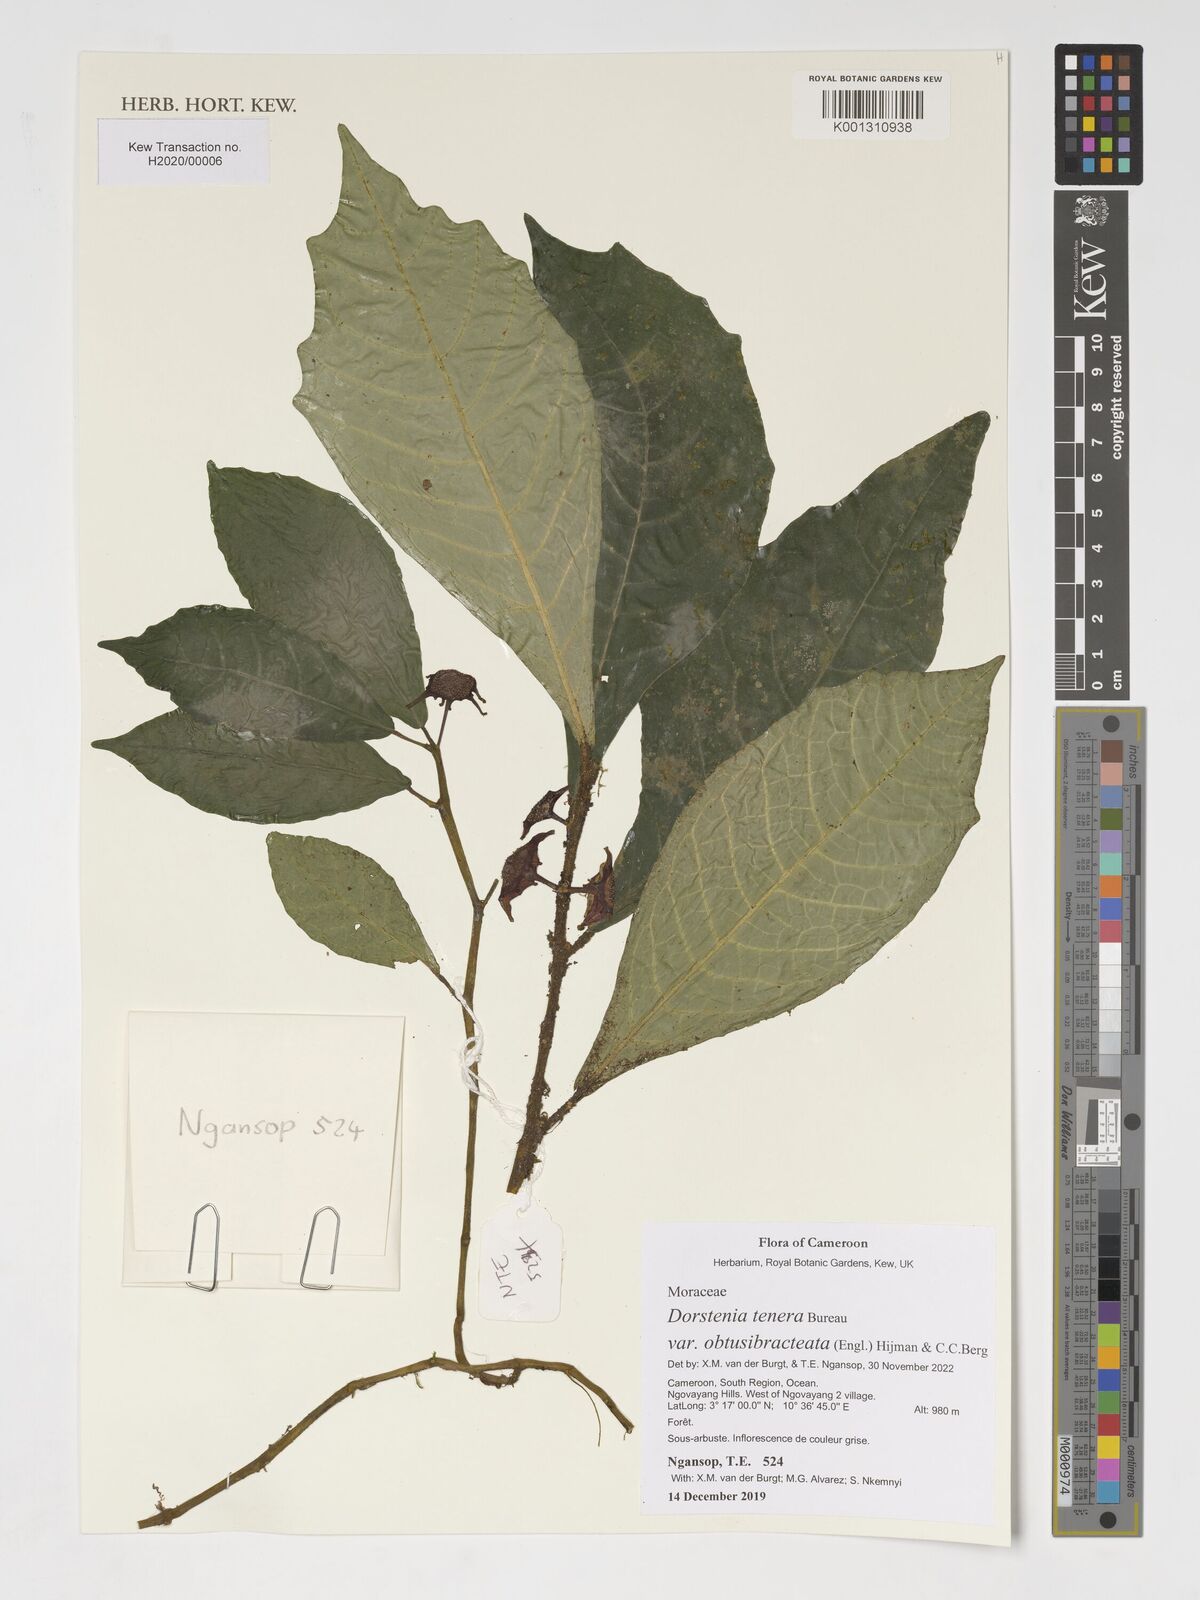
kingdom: Plantae
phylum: Tracheophyta
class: Magnoliopsida
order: Rosales
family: Moraceae
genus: Dorstenia
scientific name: Dorstenia tenera
